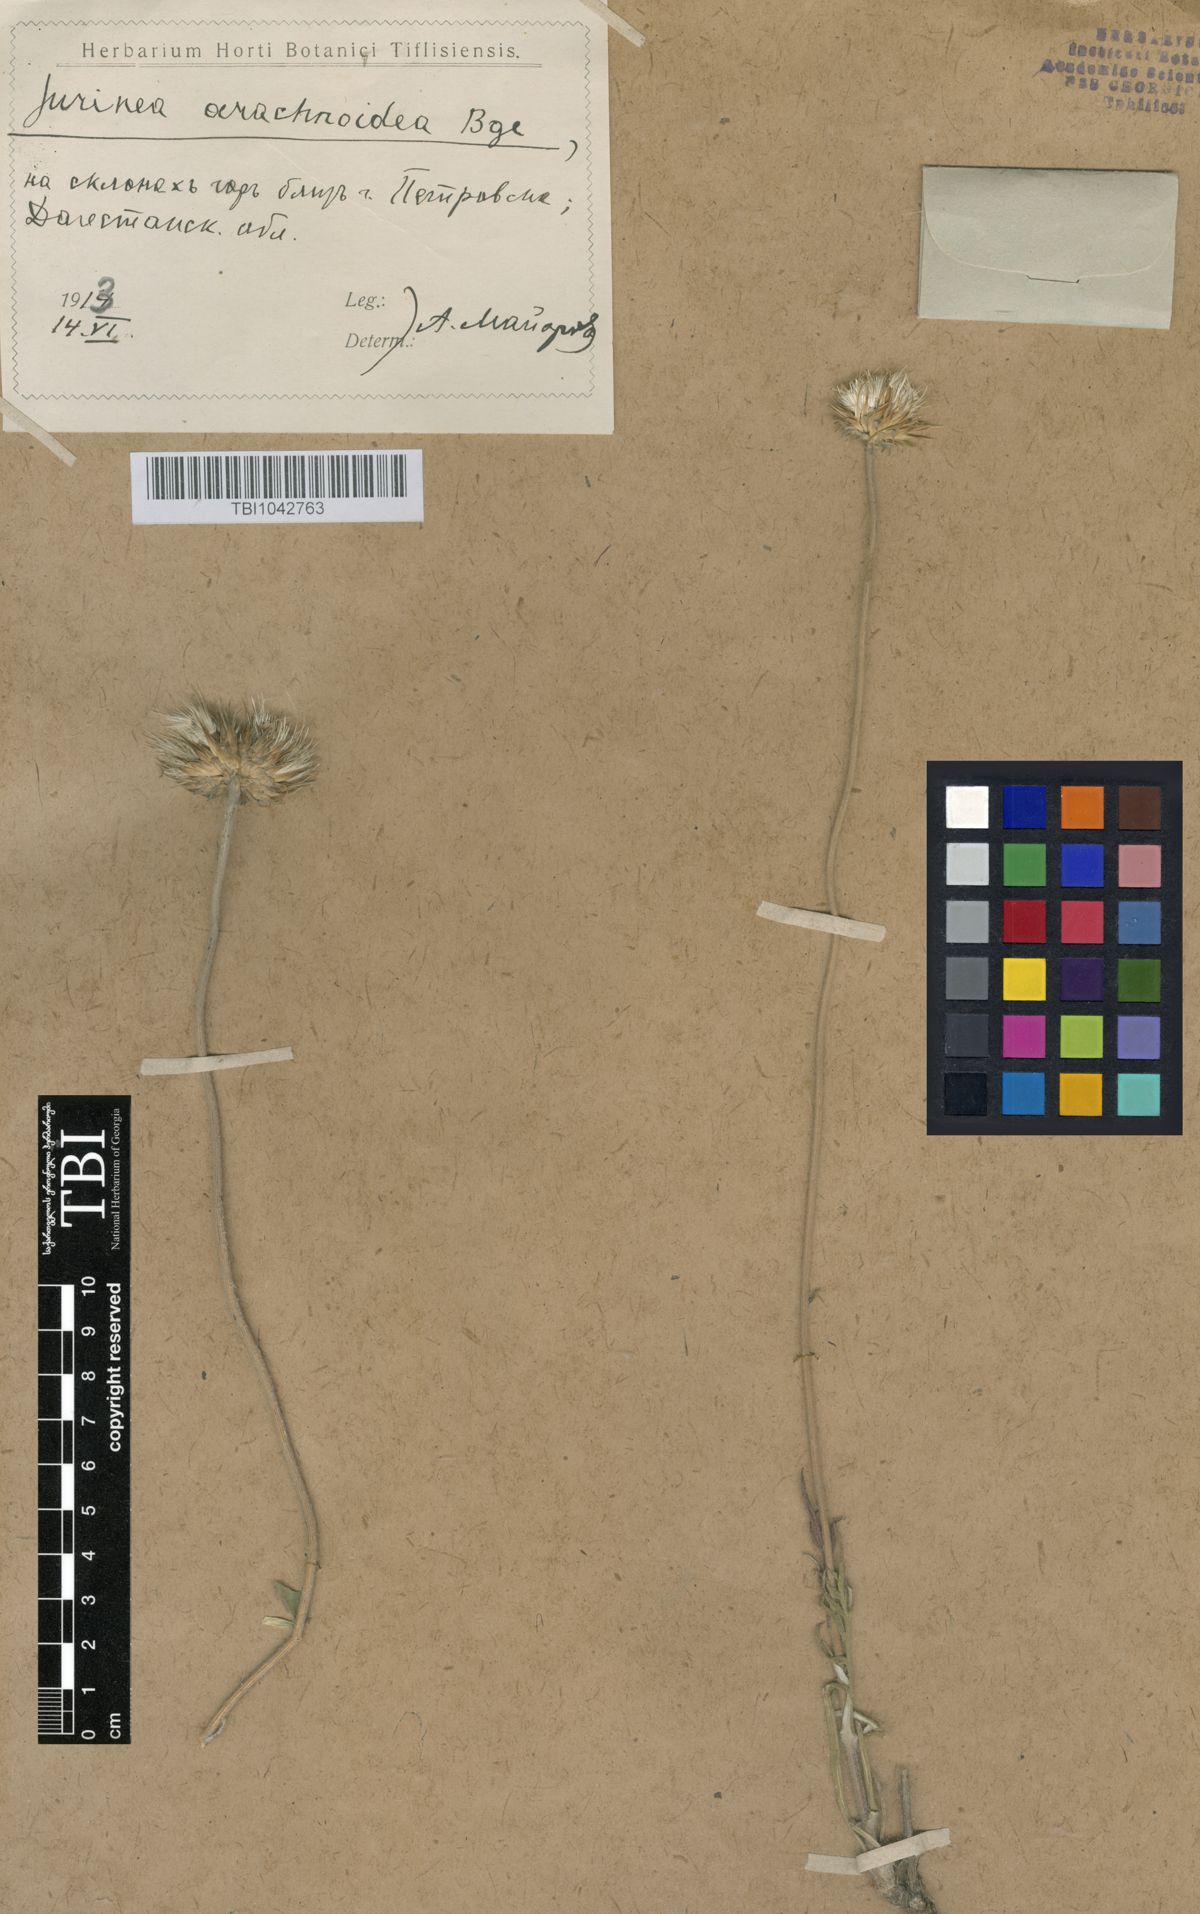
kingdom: Plantae
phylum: Tracheophyta
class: Magnoliopsida
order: Asterales
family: Asteraceae
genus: Jurinea
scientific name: Jurinea blanda
